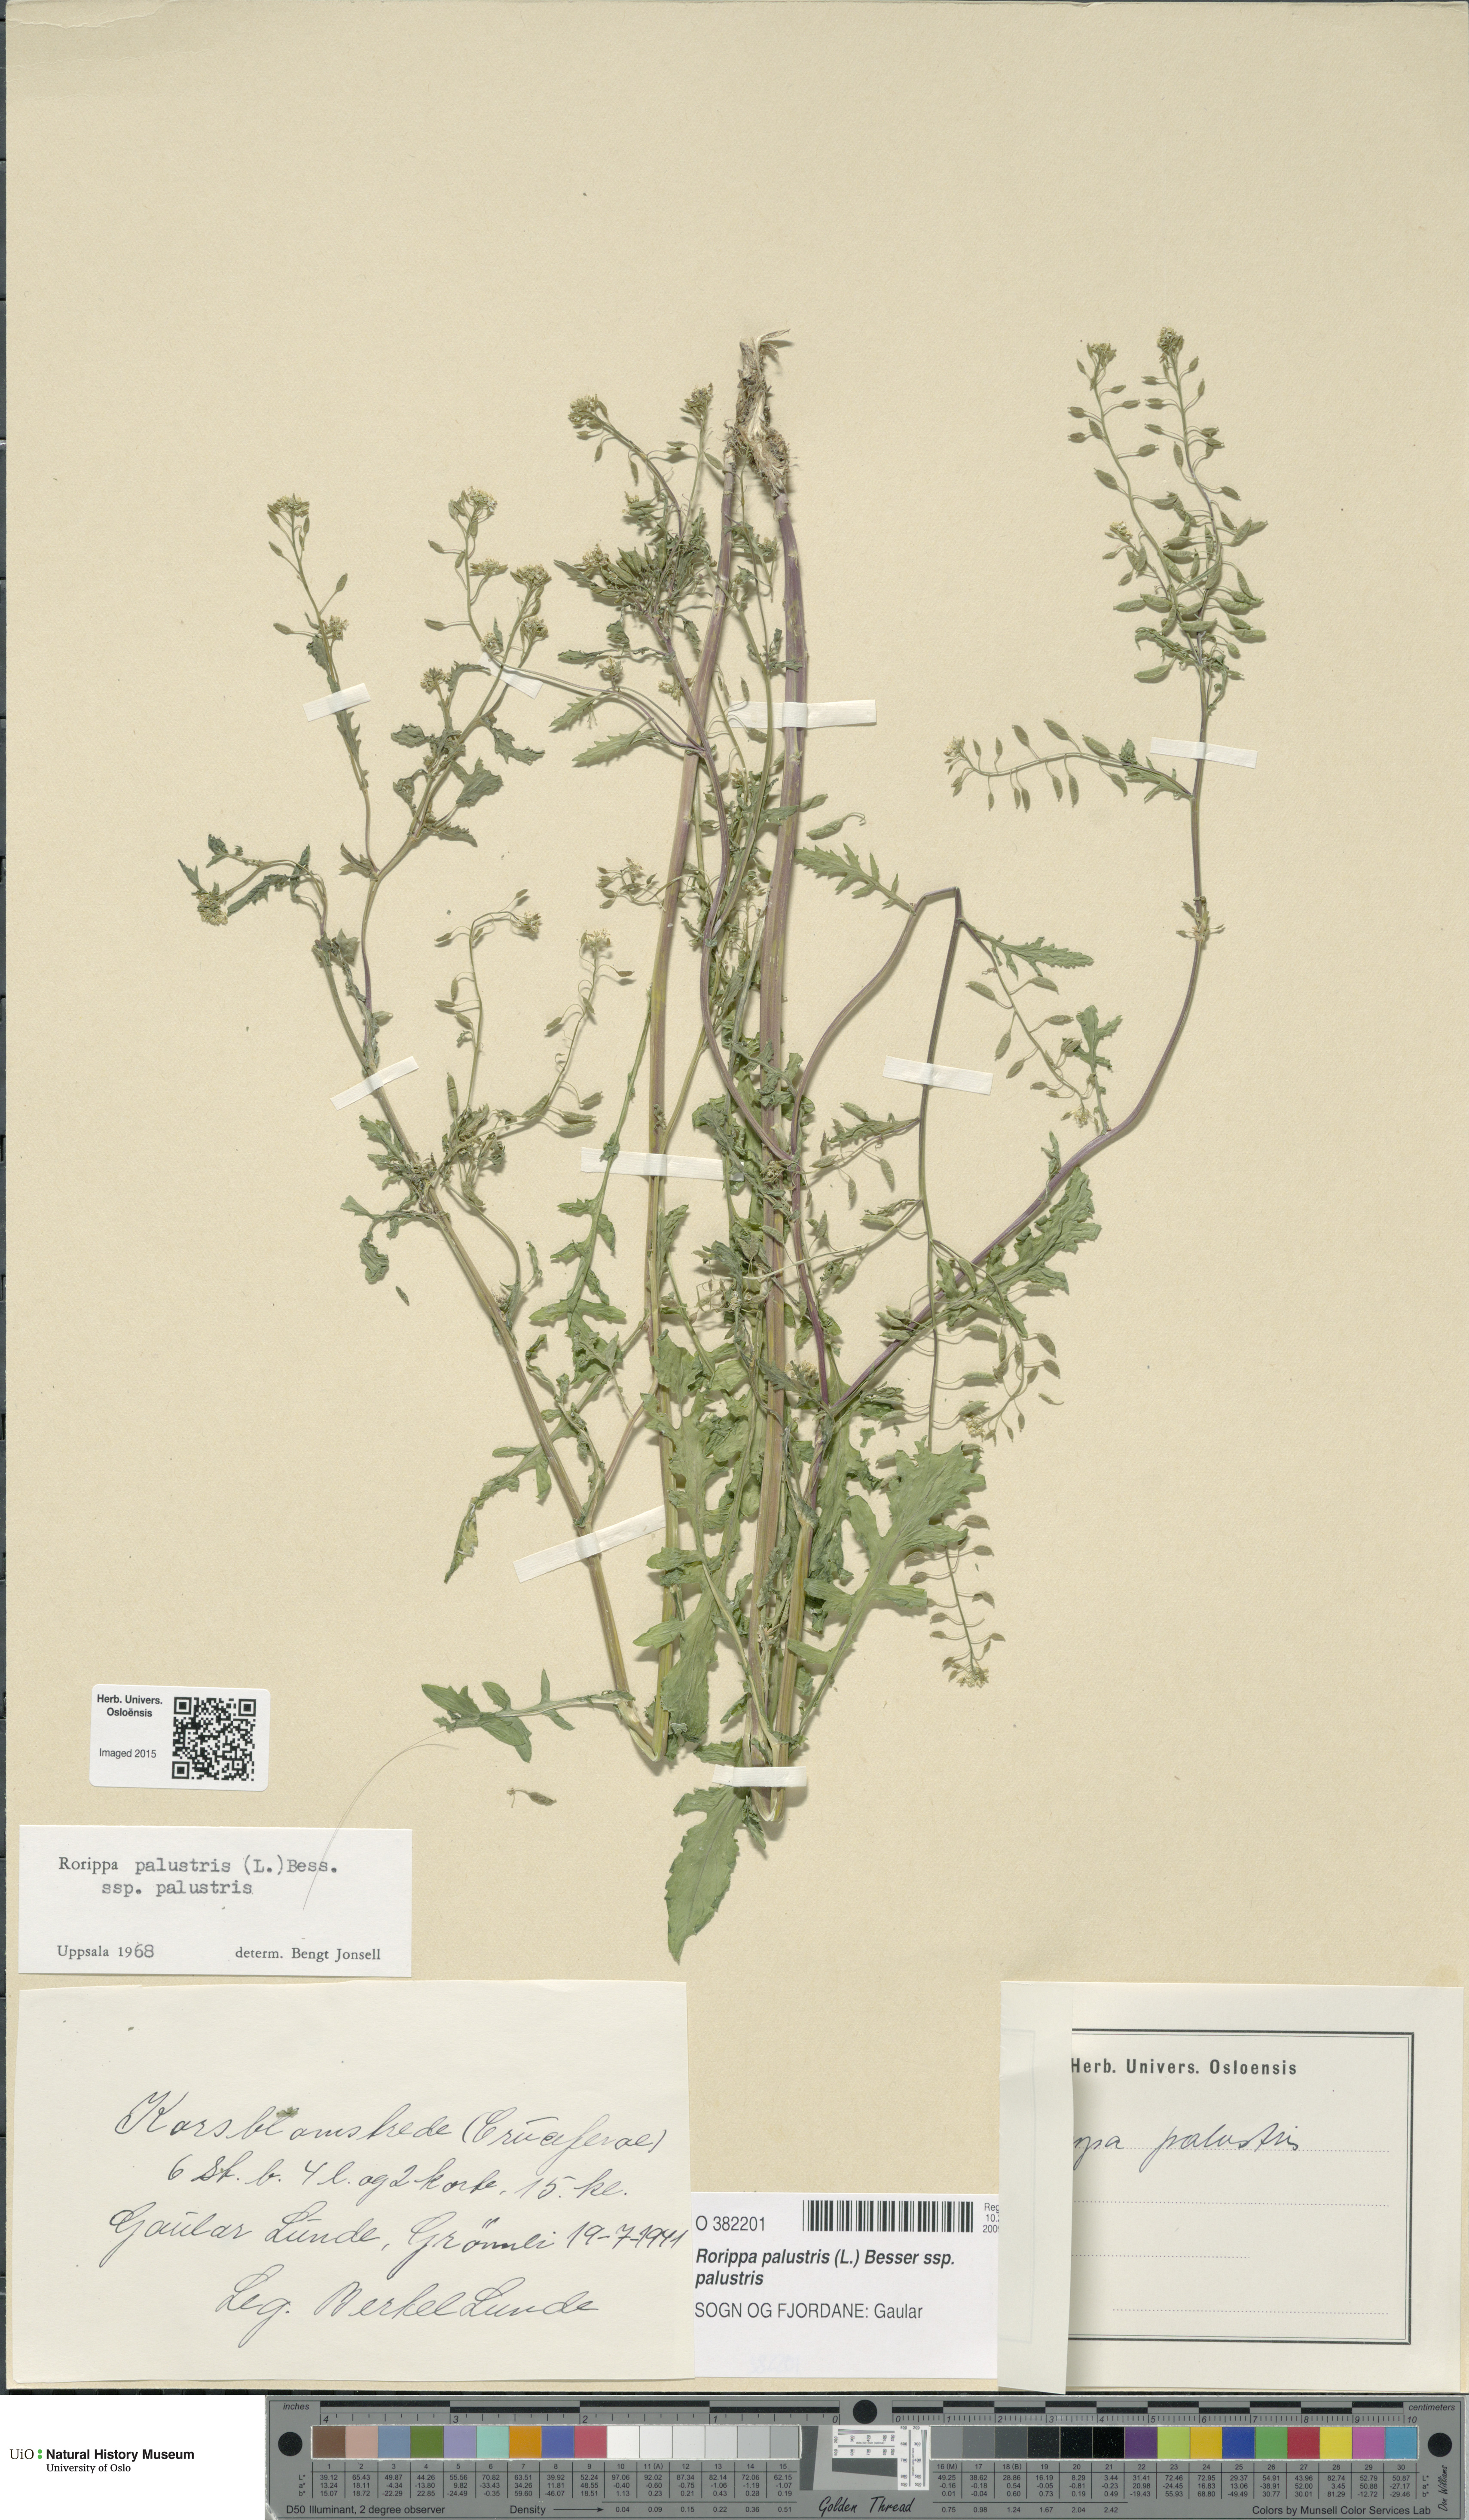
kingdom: Plantae
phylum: Tracheophyta
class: Magnoliopsida
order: Brassicales
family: Brassicaceae
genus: Rorippa
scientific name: Rorippa palustris
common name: Marsh yellow-cress
